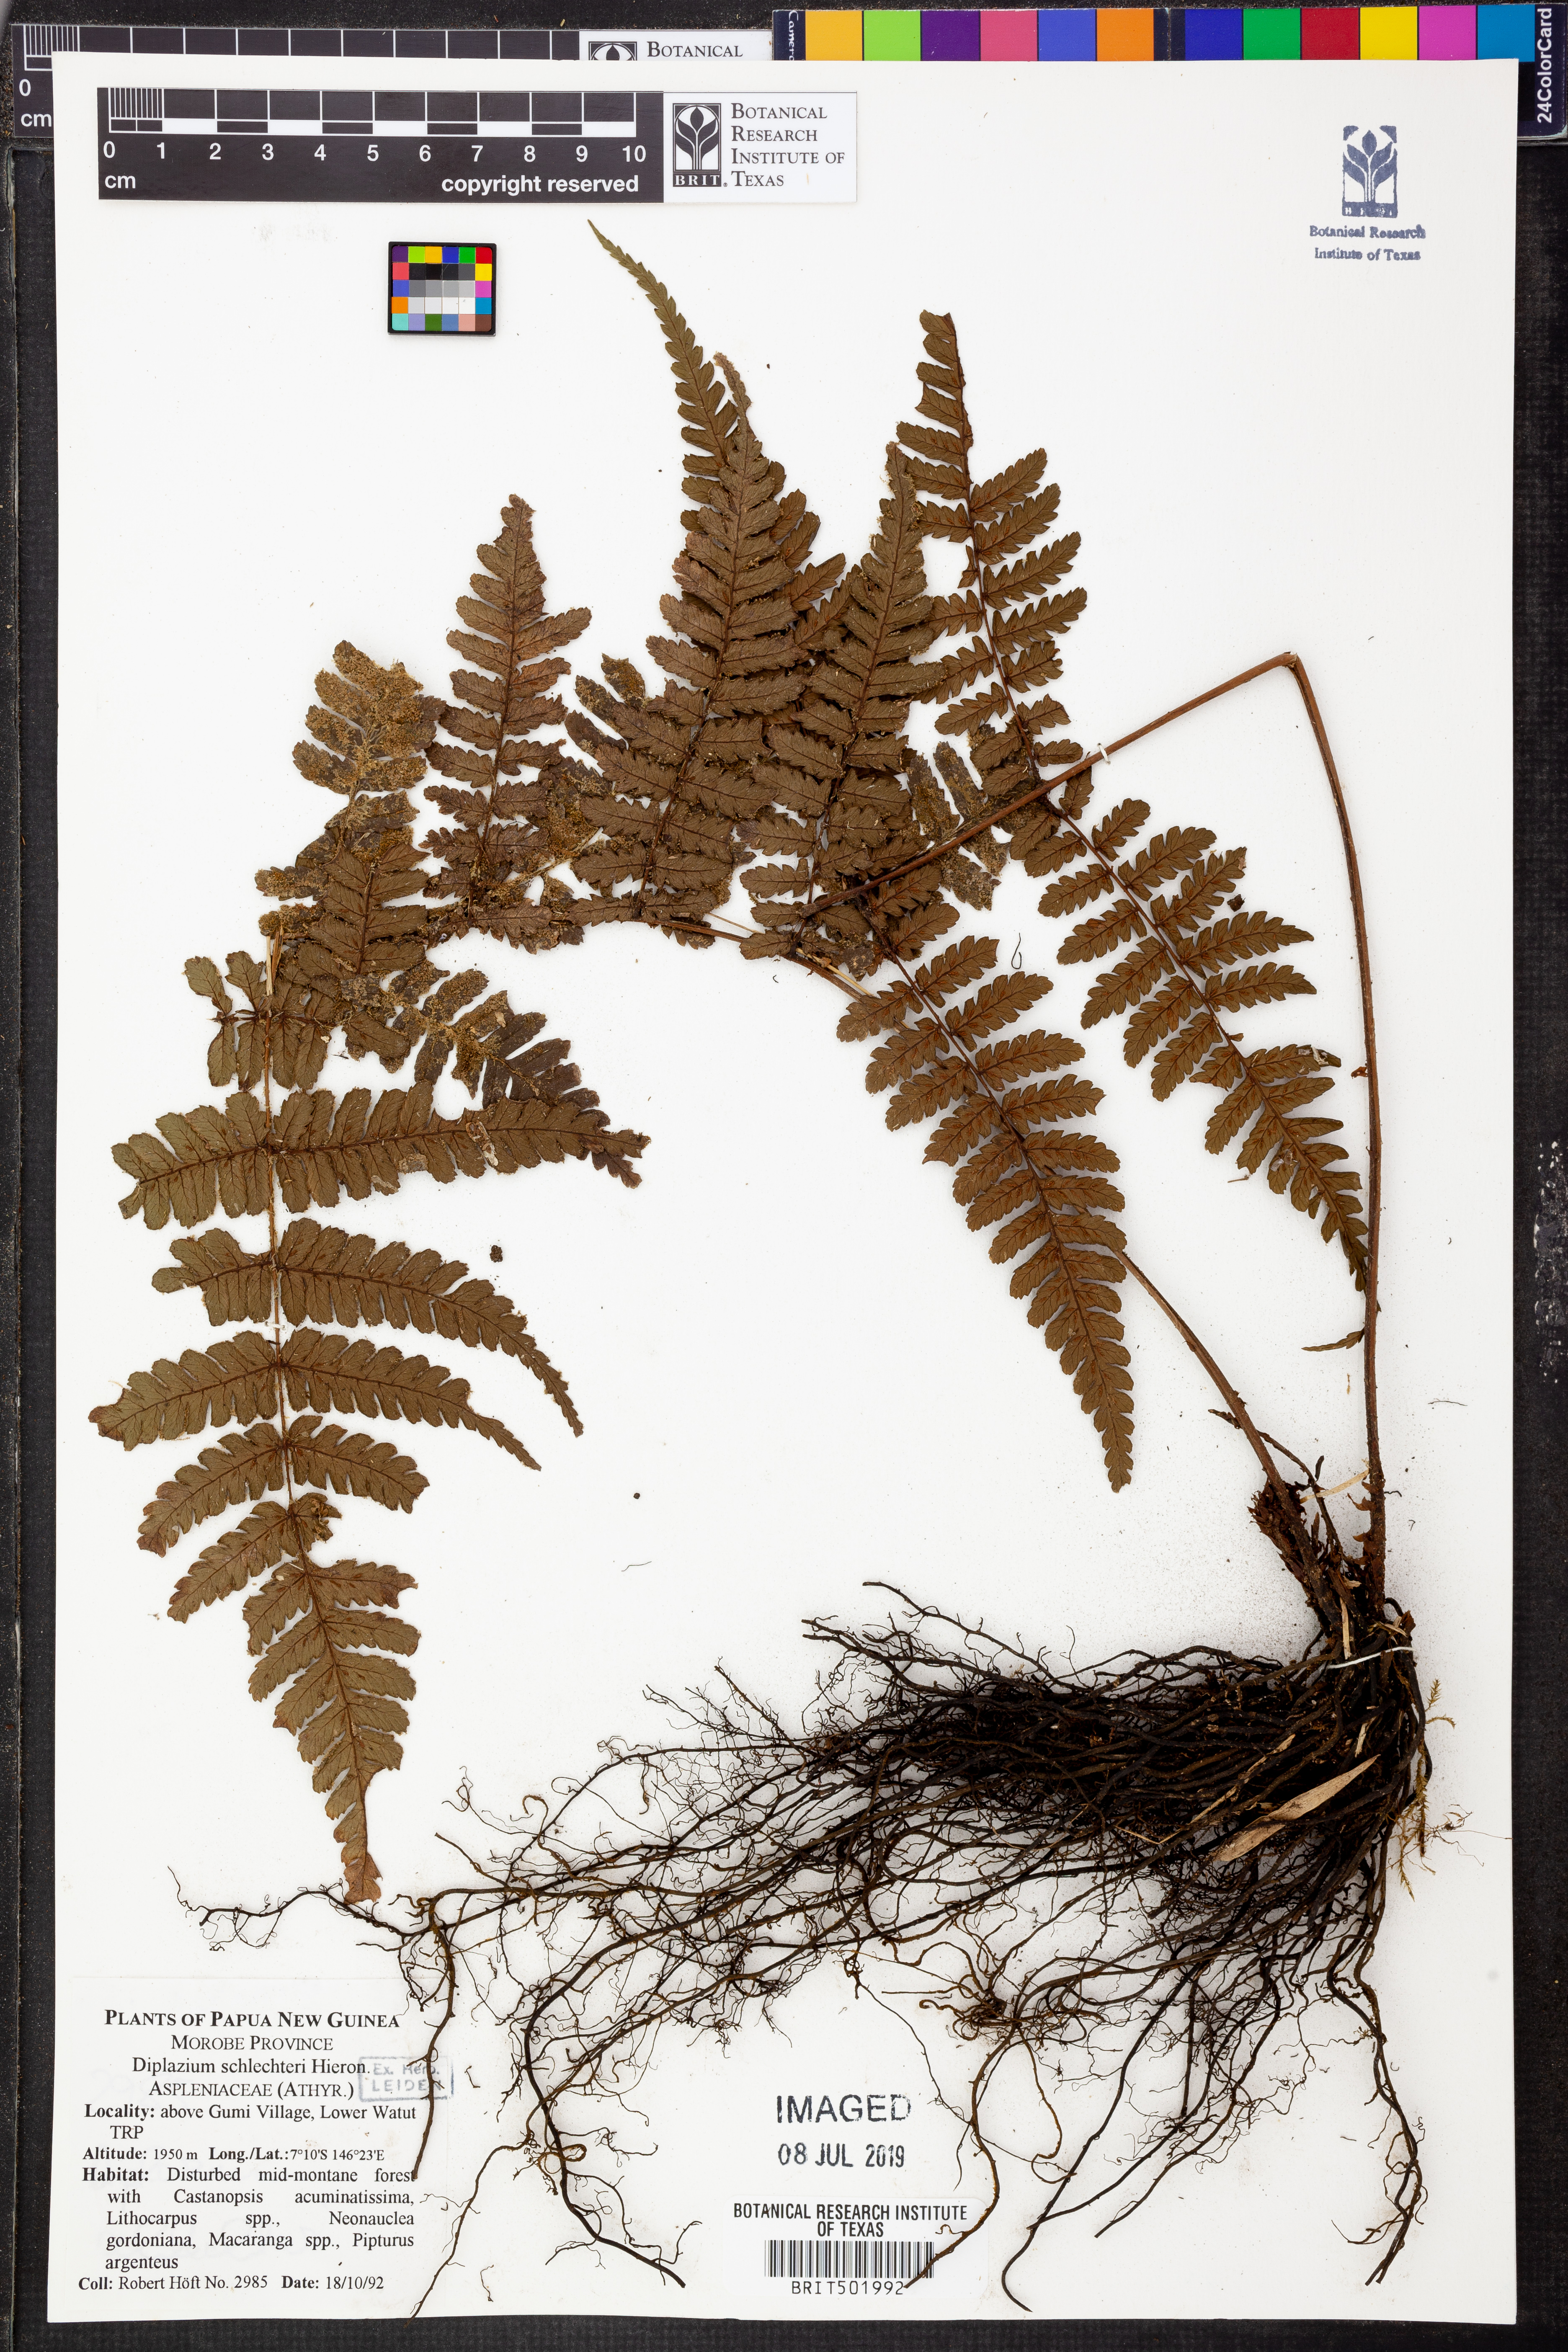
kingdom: Plantae
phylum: Tracheophyta
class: Polypodiopsida
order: Polypodiales
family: Athyriaceae
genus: Diplazium
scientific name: Diplazium schlechteri
